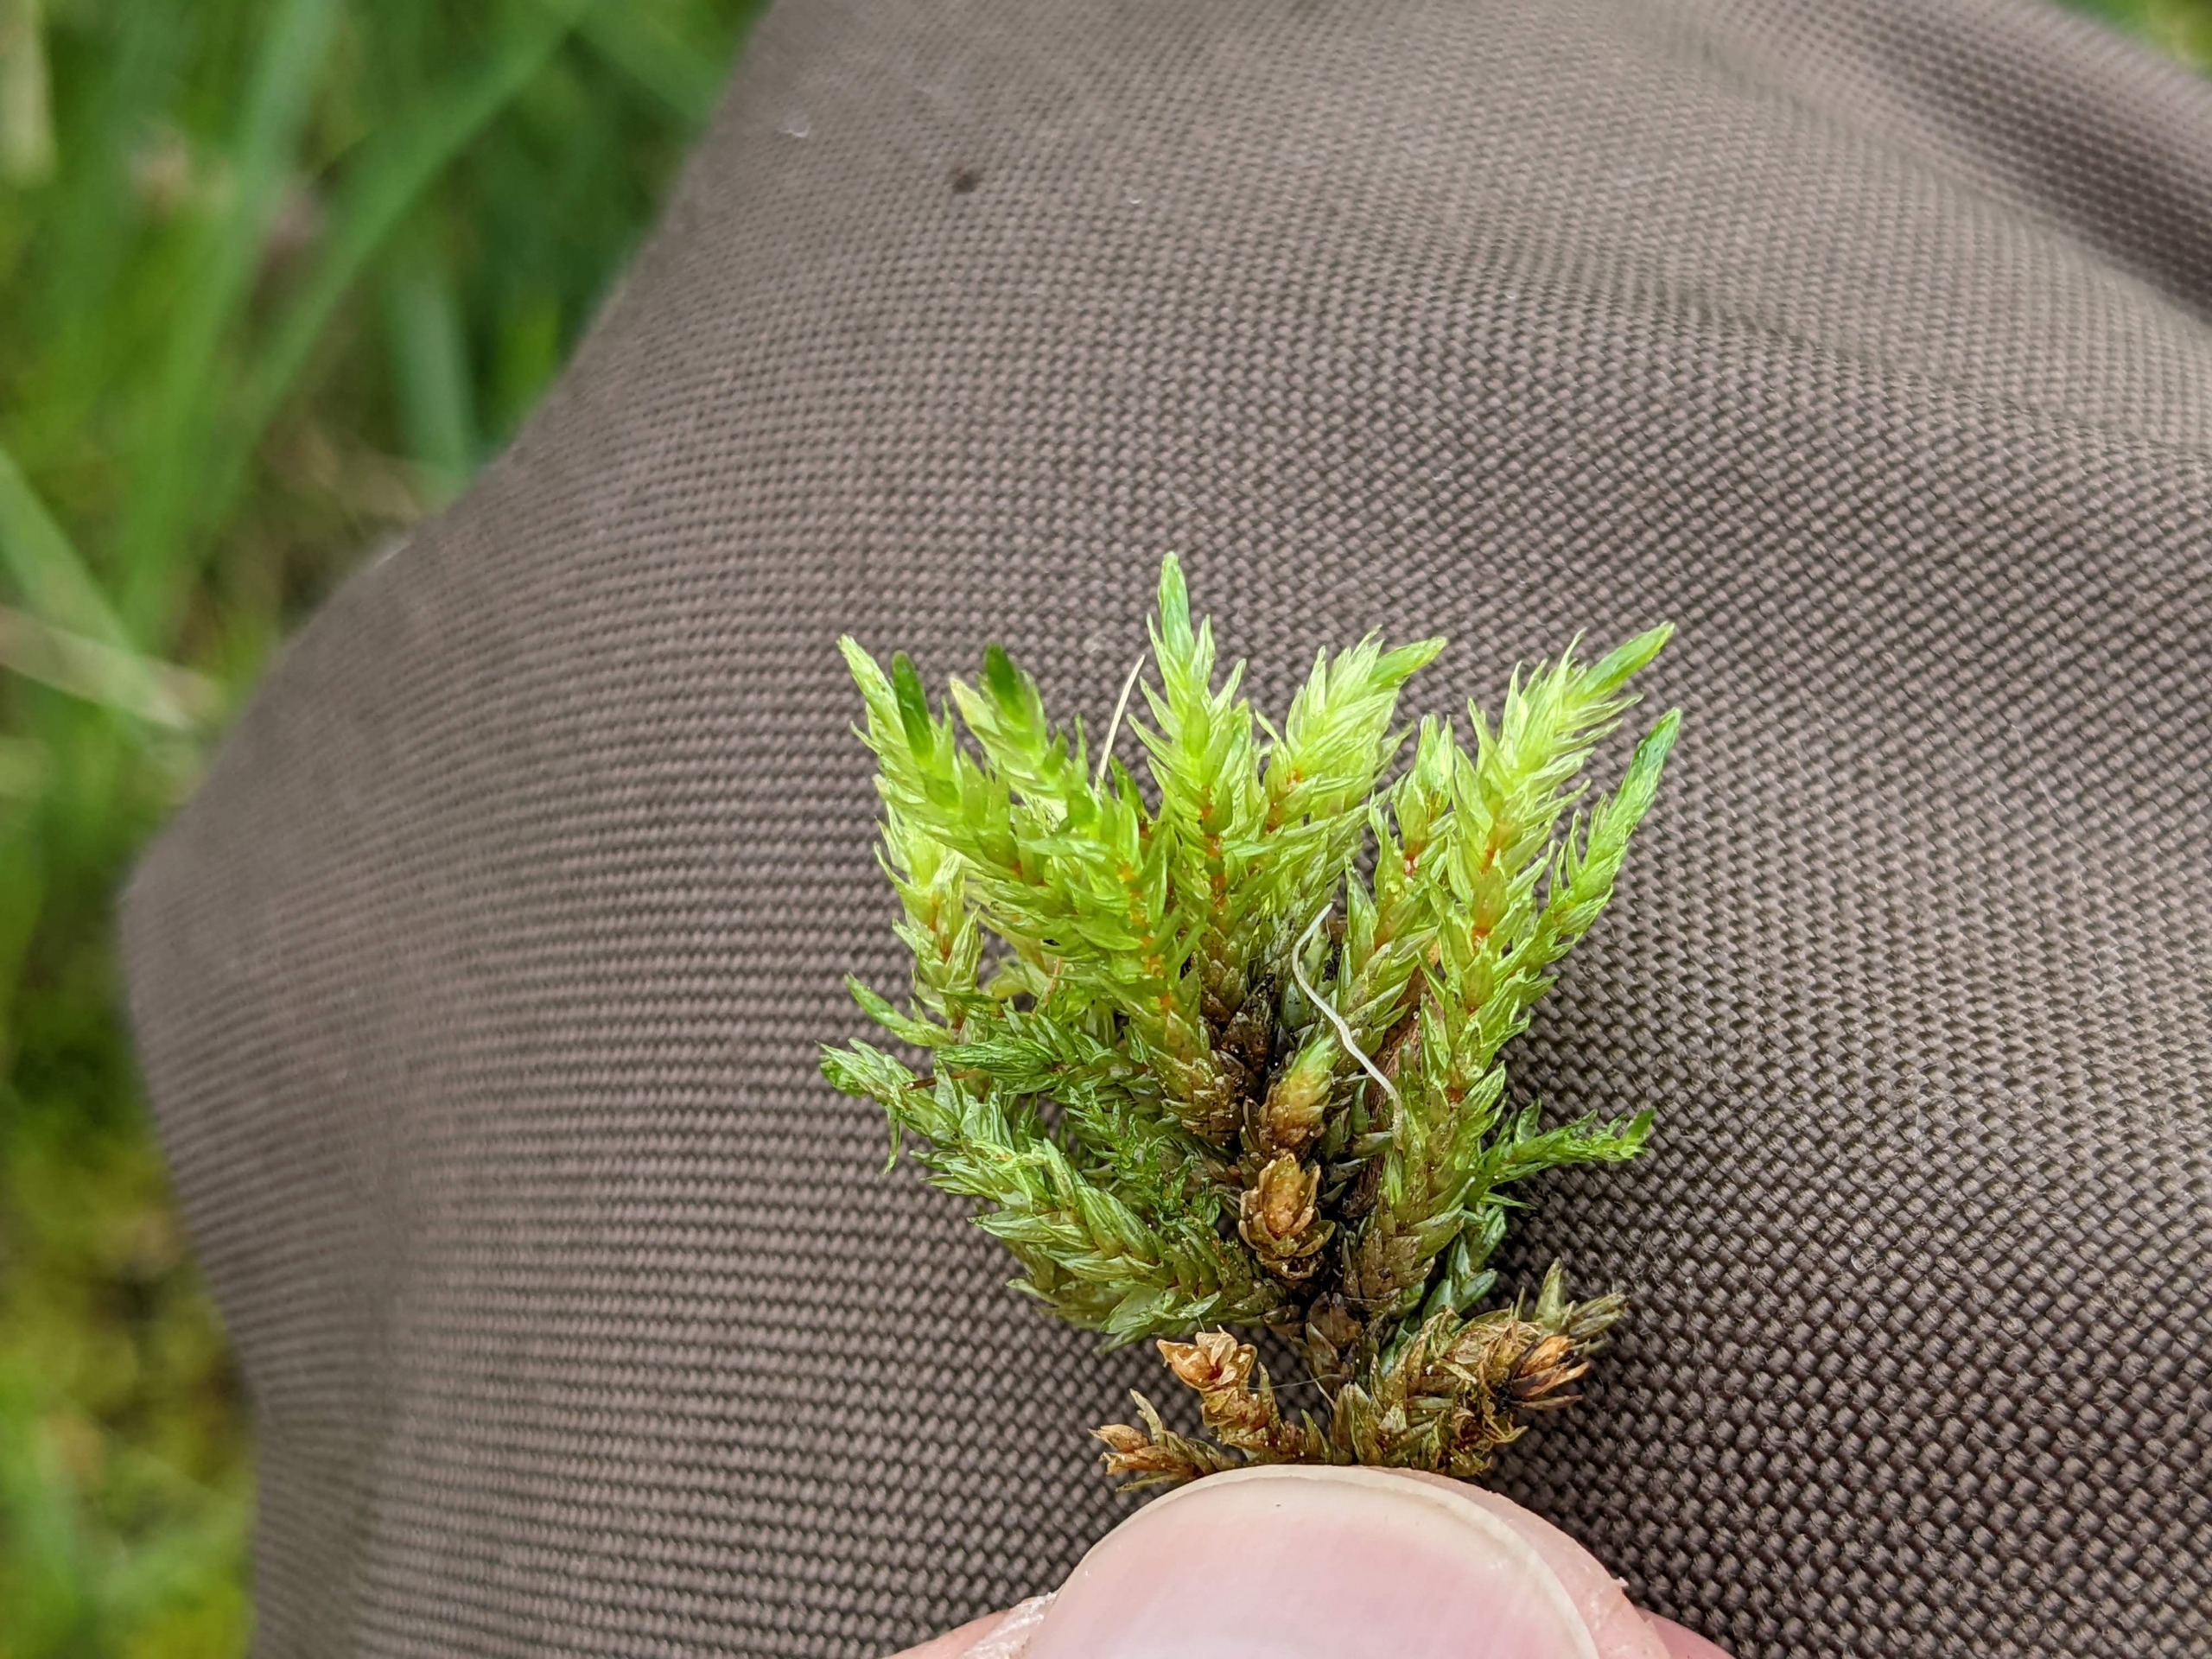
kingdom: Plantae
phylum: Bryophyta
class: Bryopsida
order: Hypnales
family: Climaciaceae
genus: Climacium
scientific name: Climacium dendroides
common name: Stor engkost
